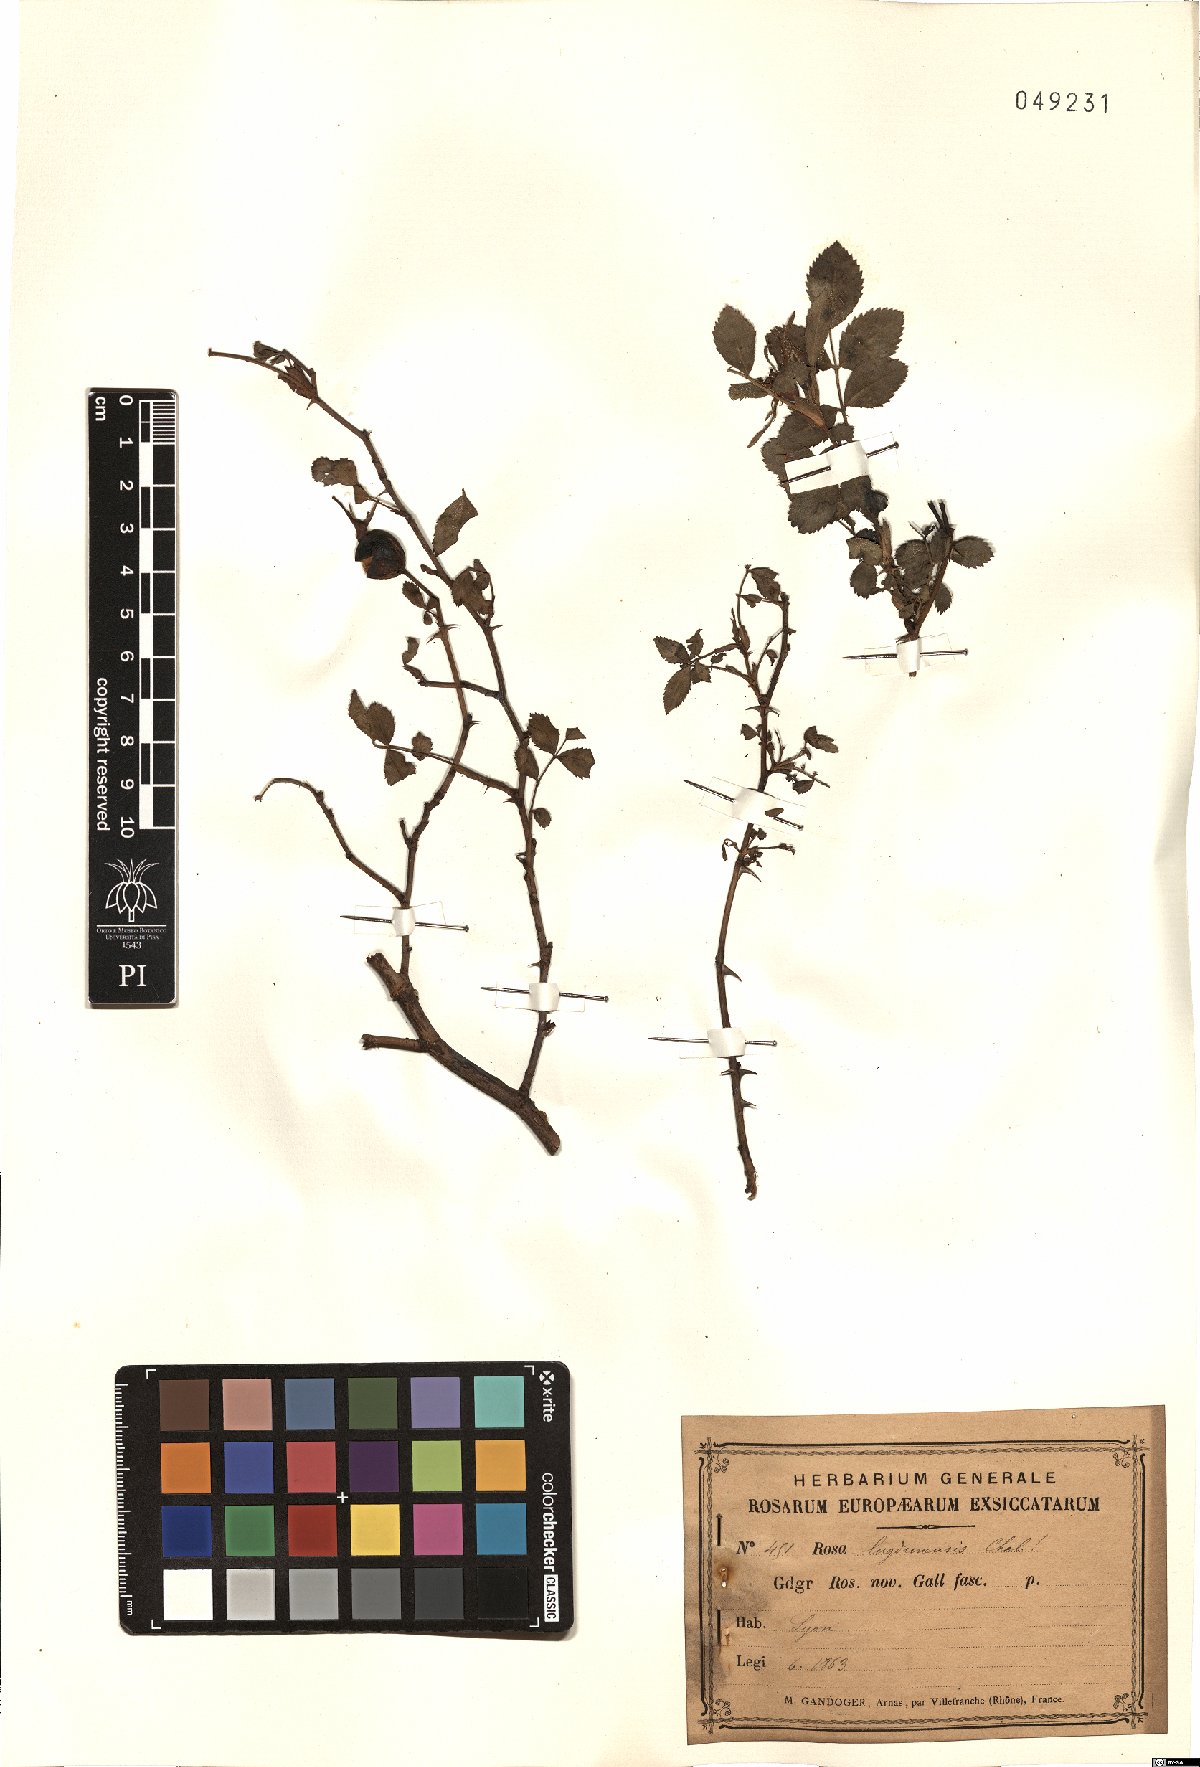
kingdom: Plantae
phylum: Tracheophyta
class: Magnoliopsida
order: Rosales
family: Rosaceae
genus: Rosa
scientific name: Rosa
